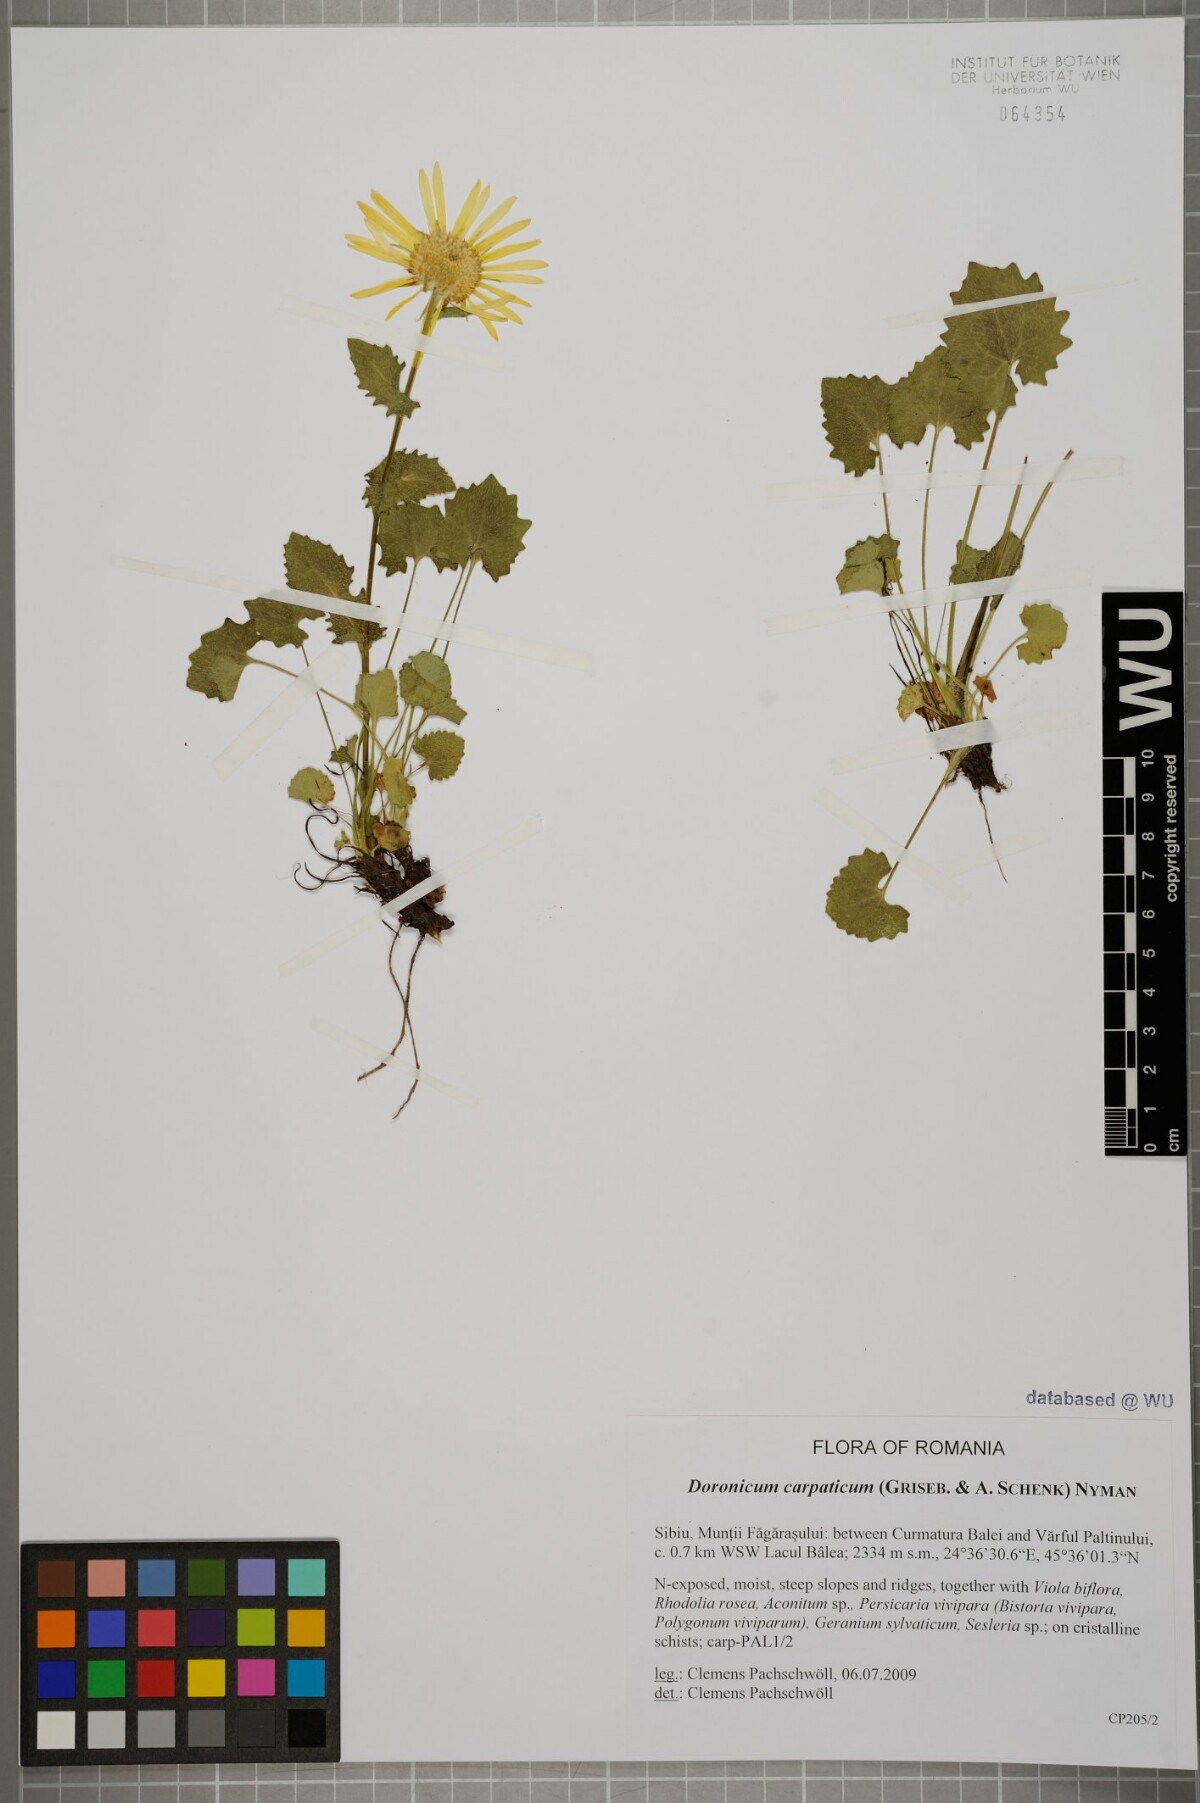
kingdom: Plantae
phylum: Tracheophyta
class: Magnoliopsida
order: Asterales
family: Asteraceae
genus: Doronicum
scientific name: Doronicum carpaticum
